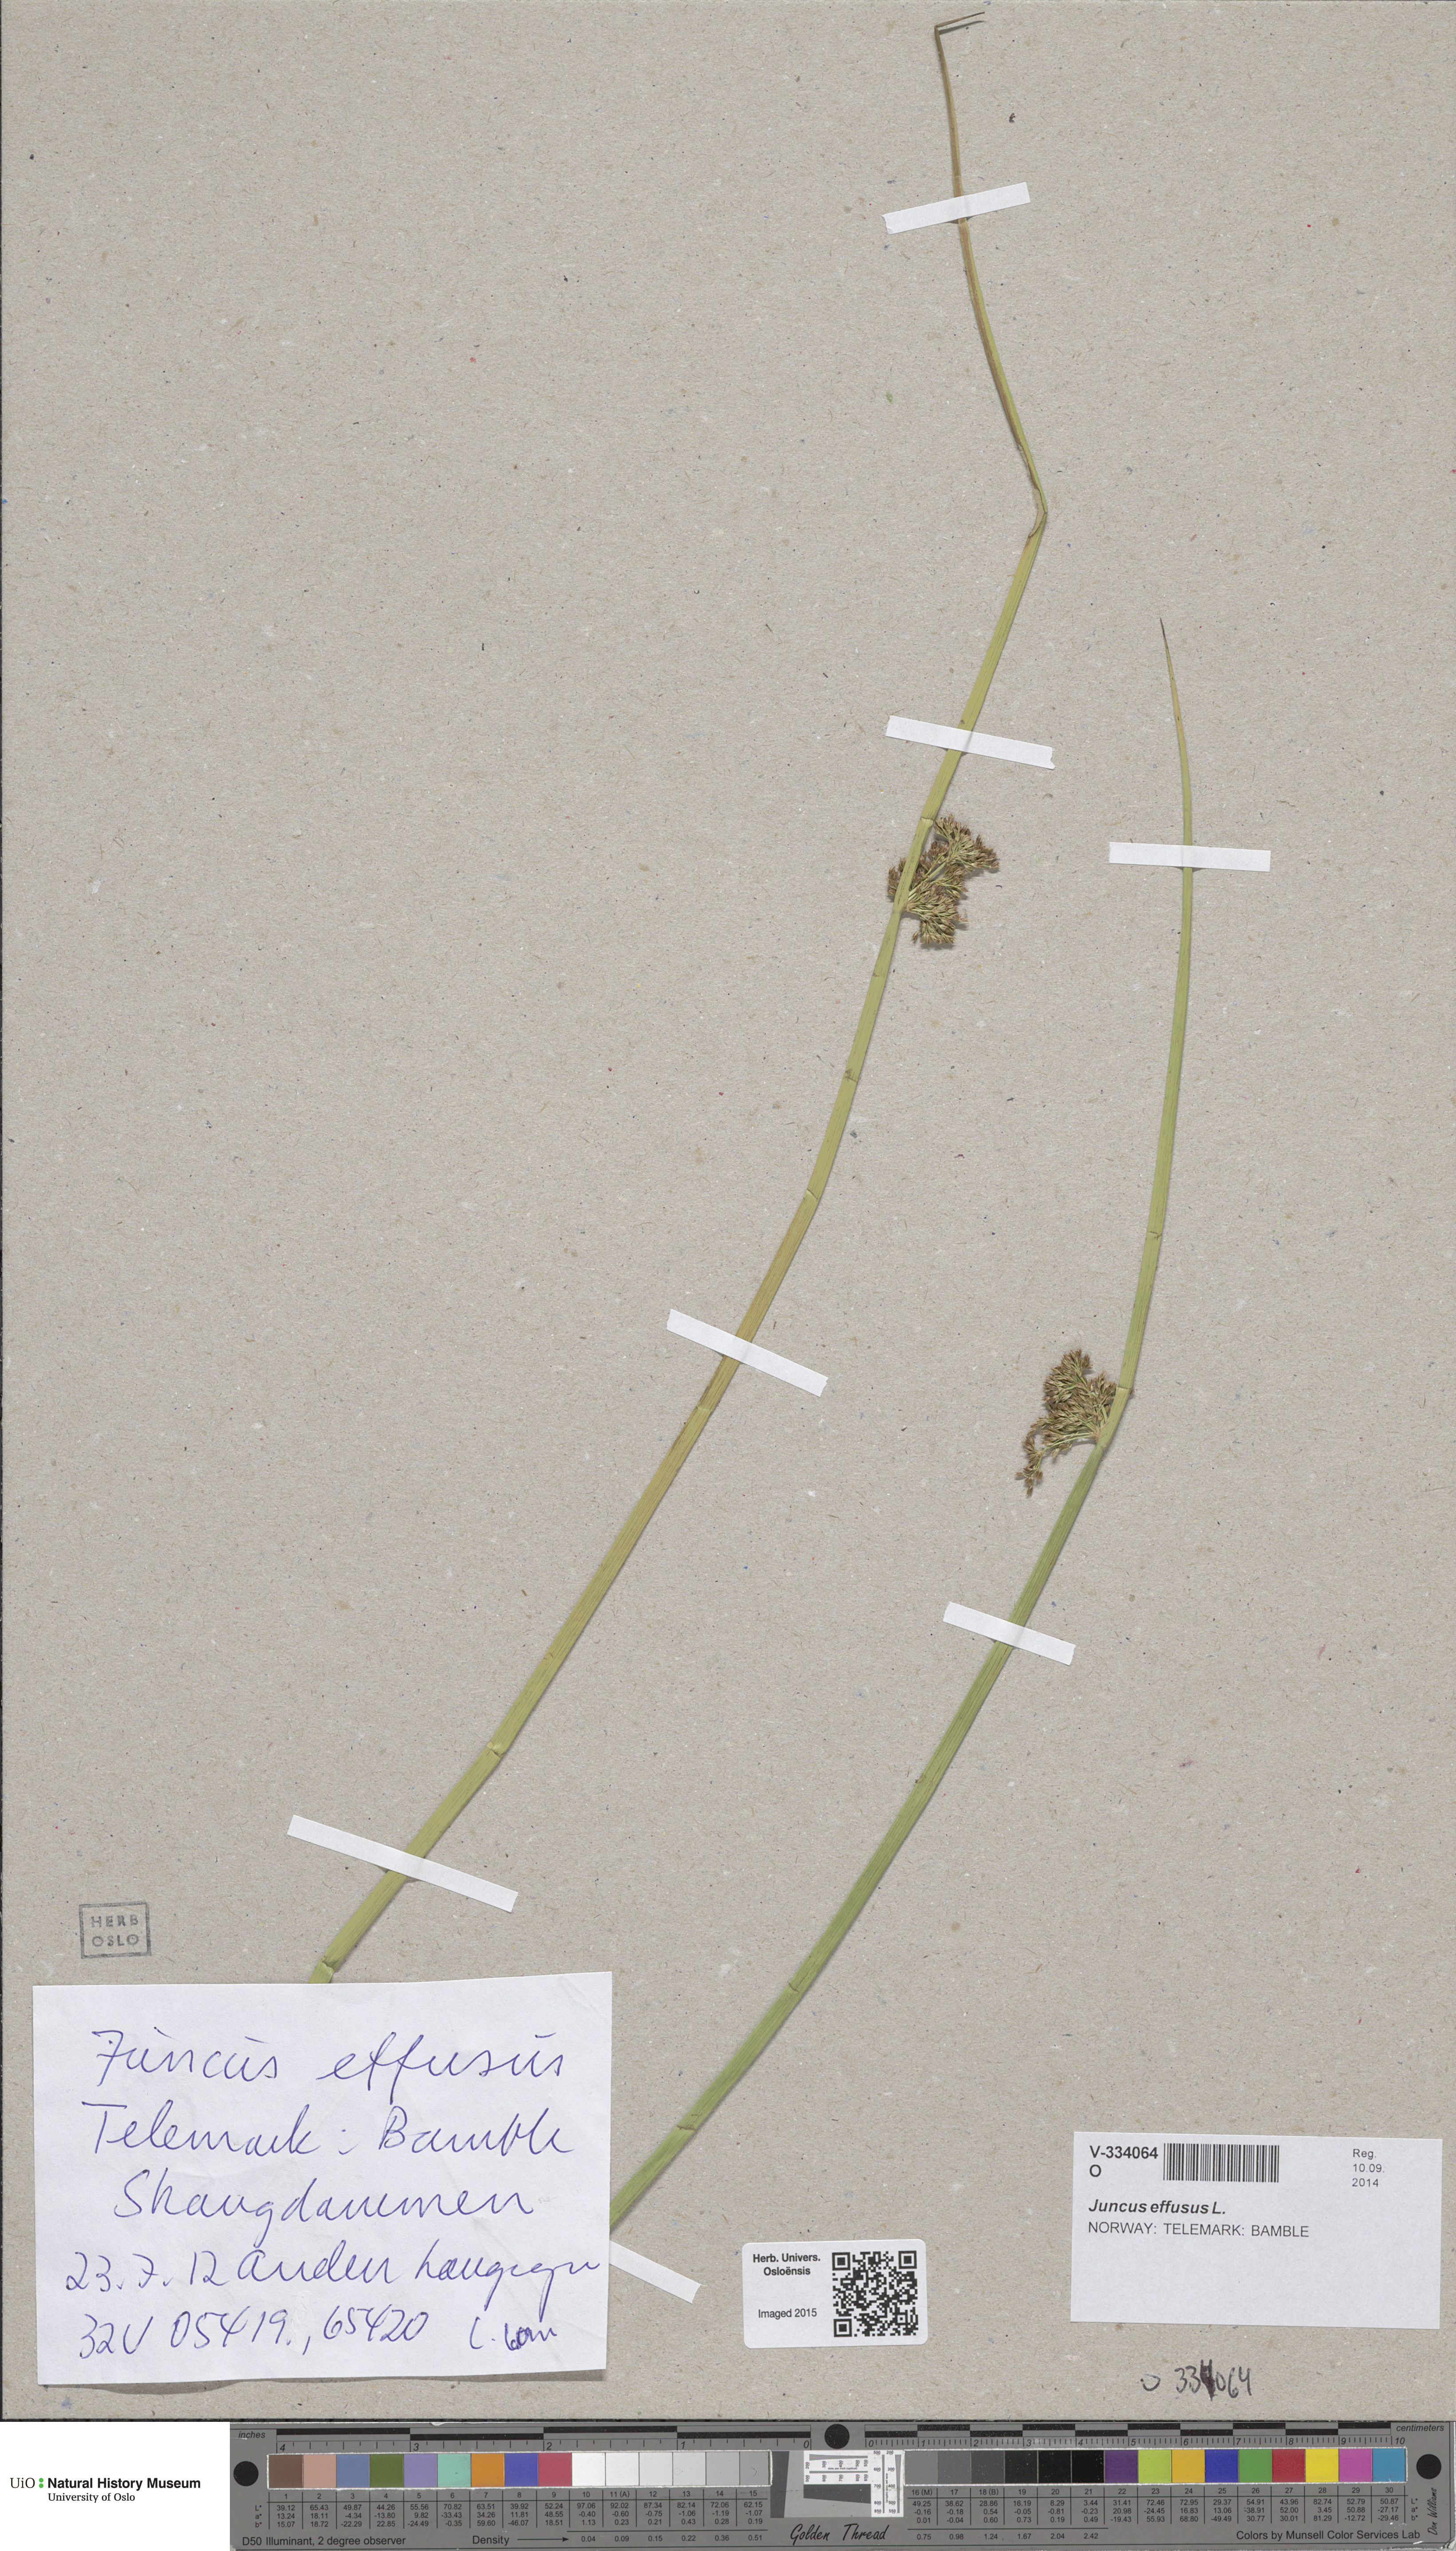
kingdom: Plantae
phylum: Tracheophyta
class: Liliopsida
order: Poales
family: Juncaceae
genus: Juncus
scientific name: Juncus effusus
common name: Soft rush
